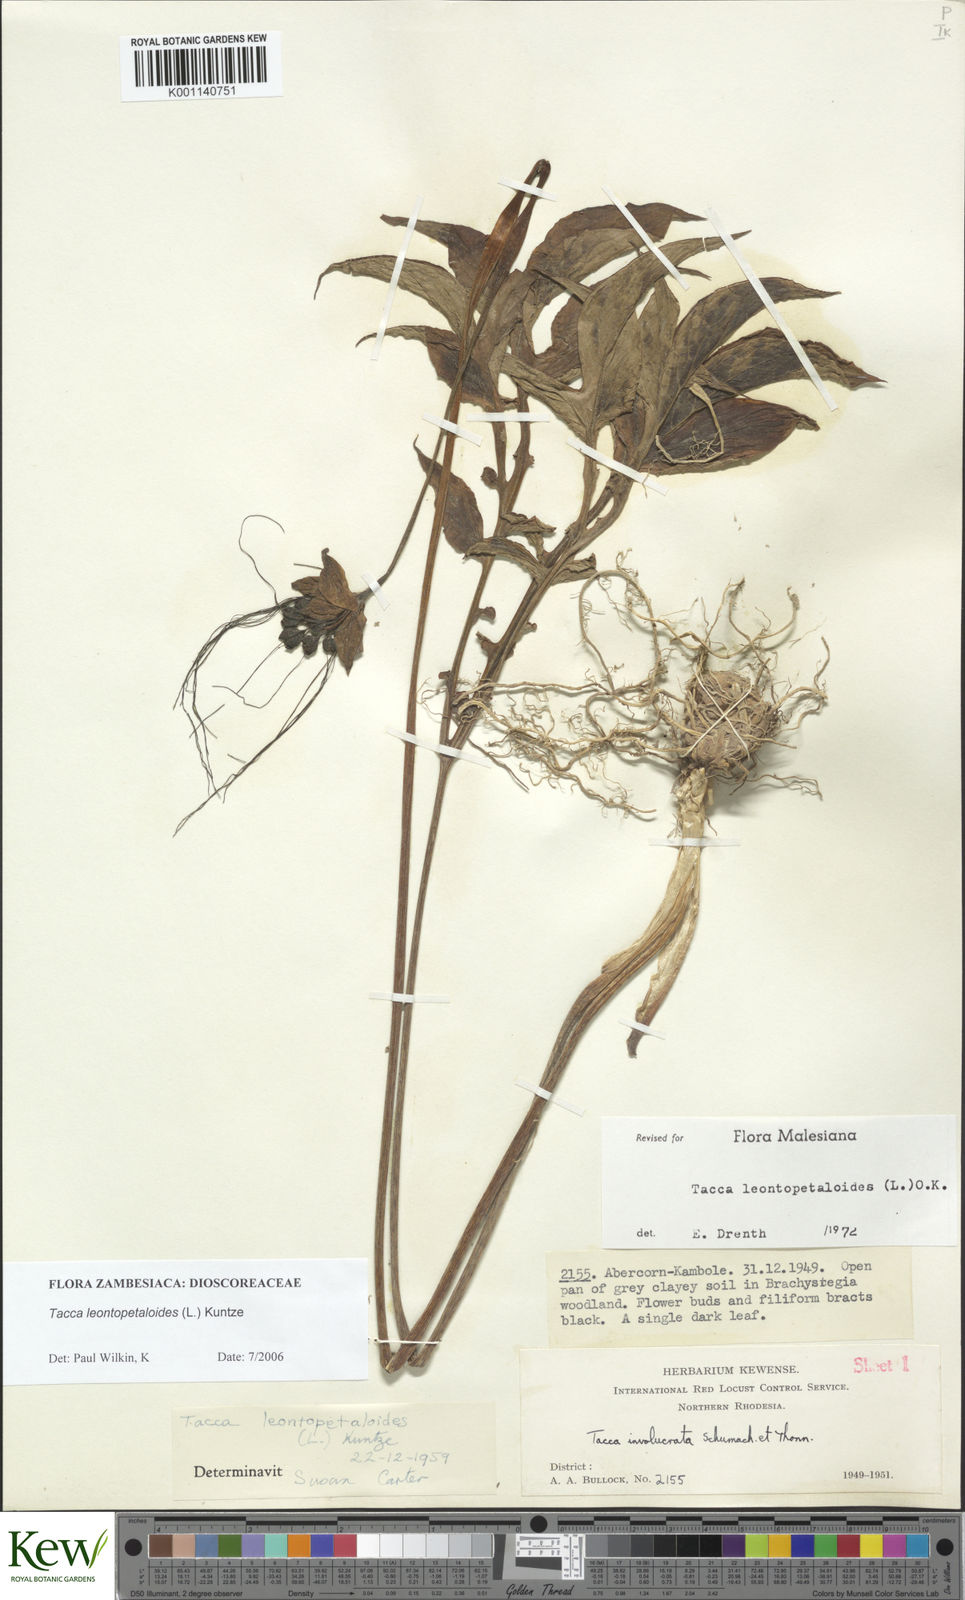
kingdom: Plantae
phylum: Tracheophyta
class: Liliopsida
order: Dioscoreales
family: Dioscoreaceae
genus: Tacca
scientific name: Tacca leontopetaloides
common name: Arrowroot
